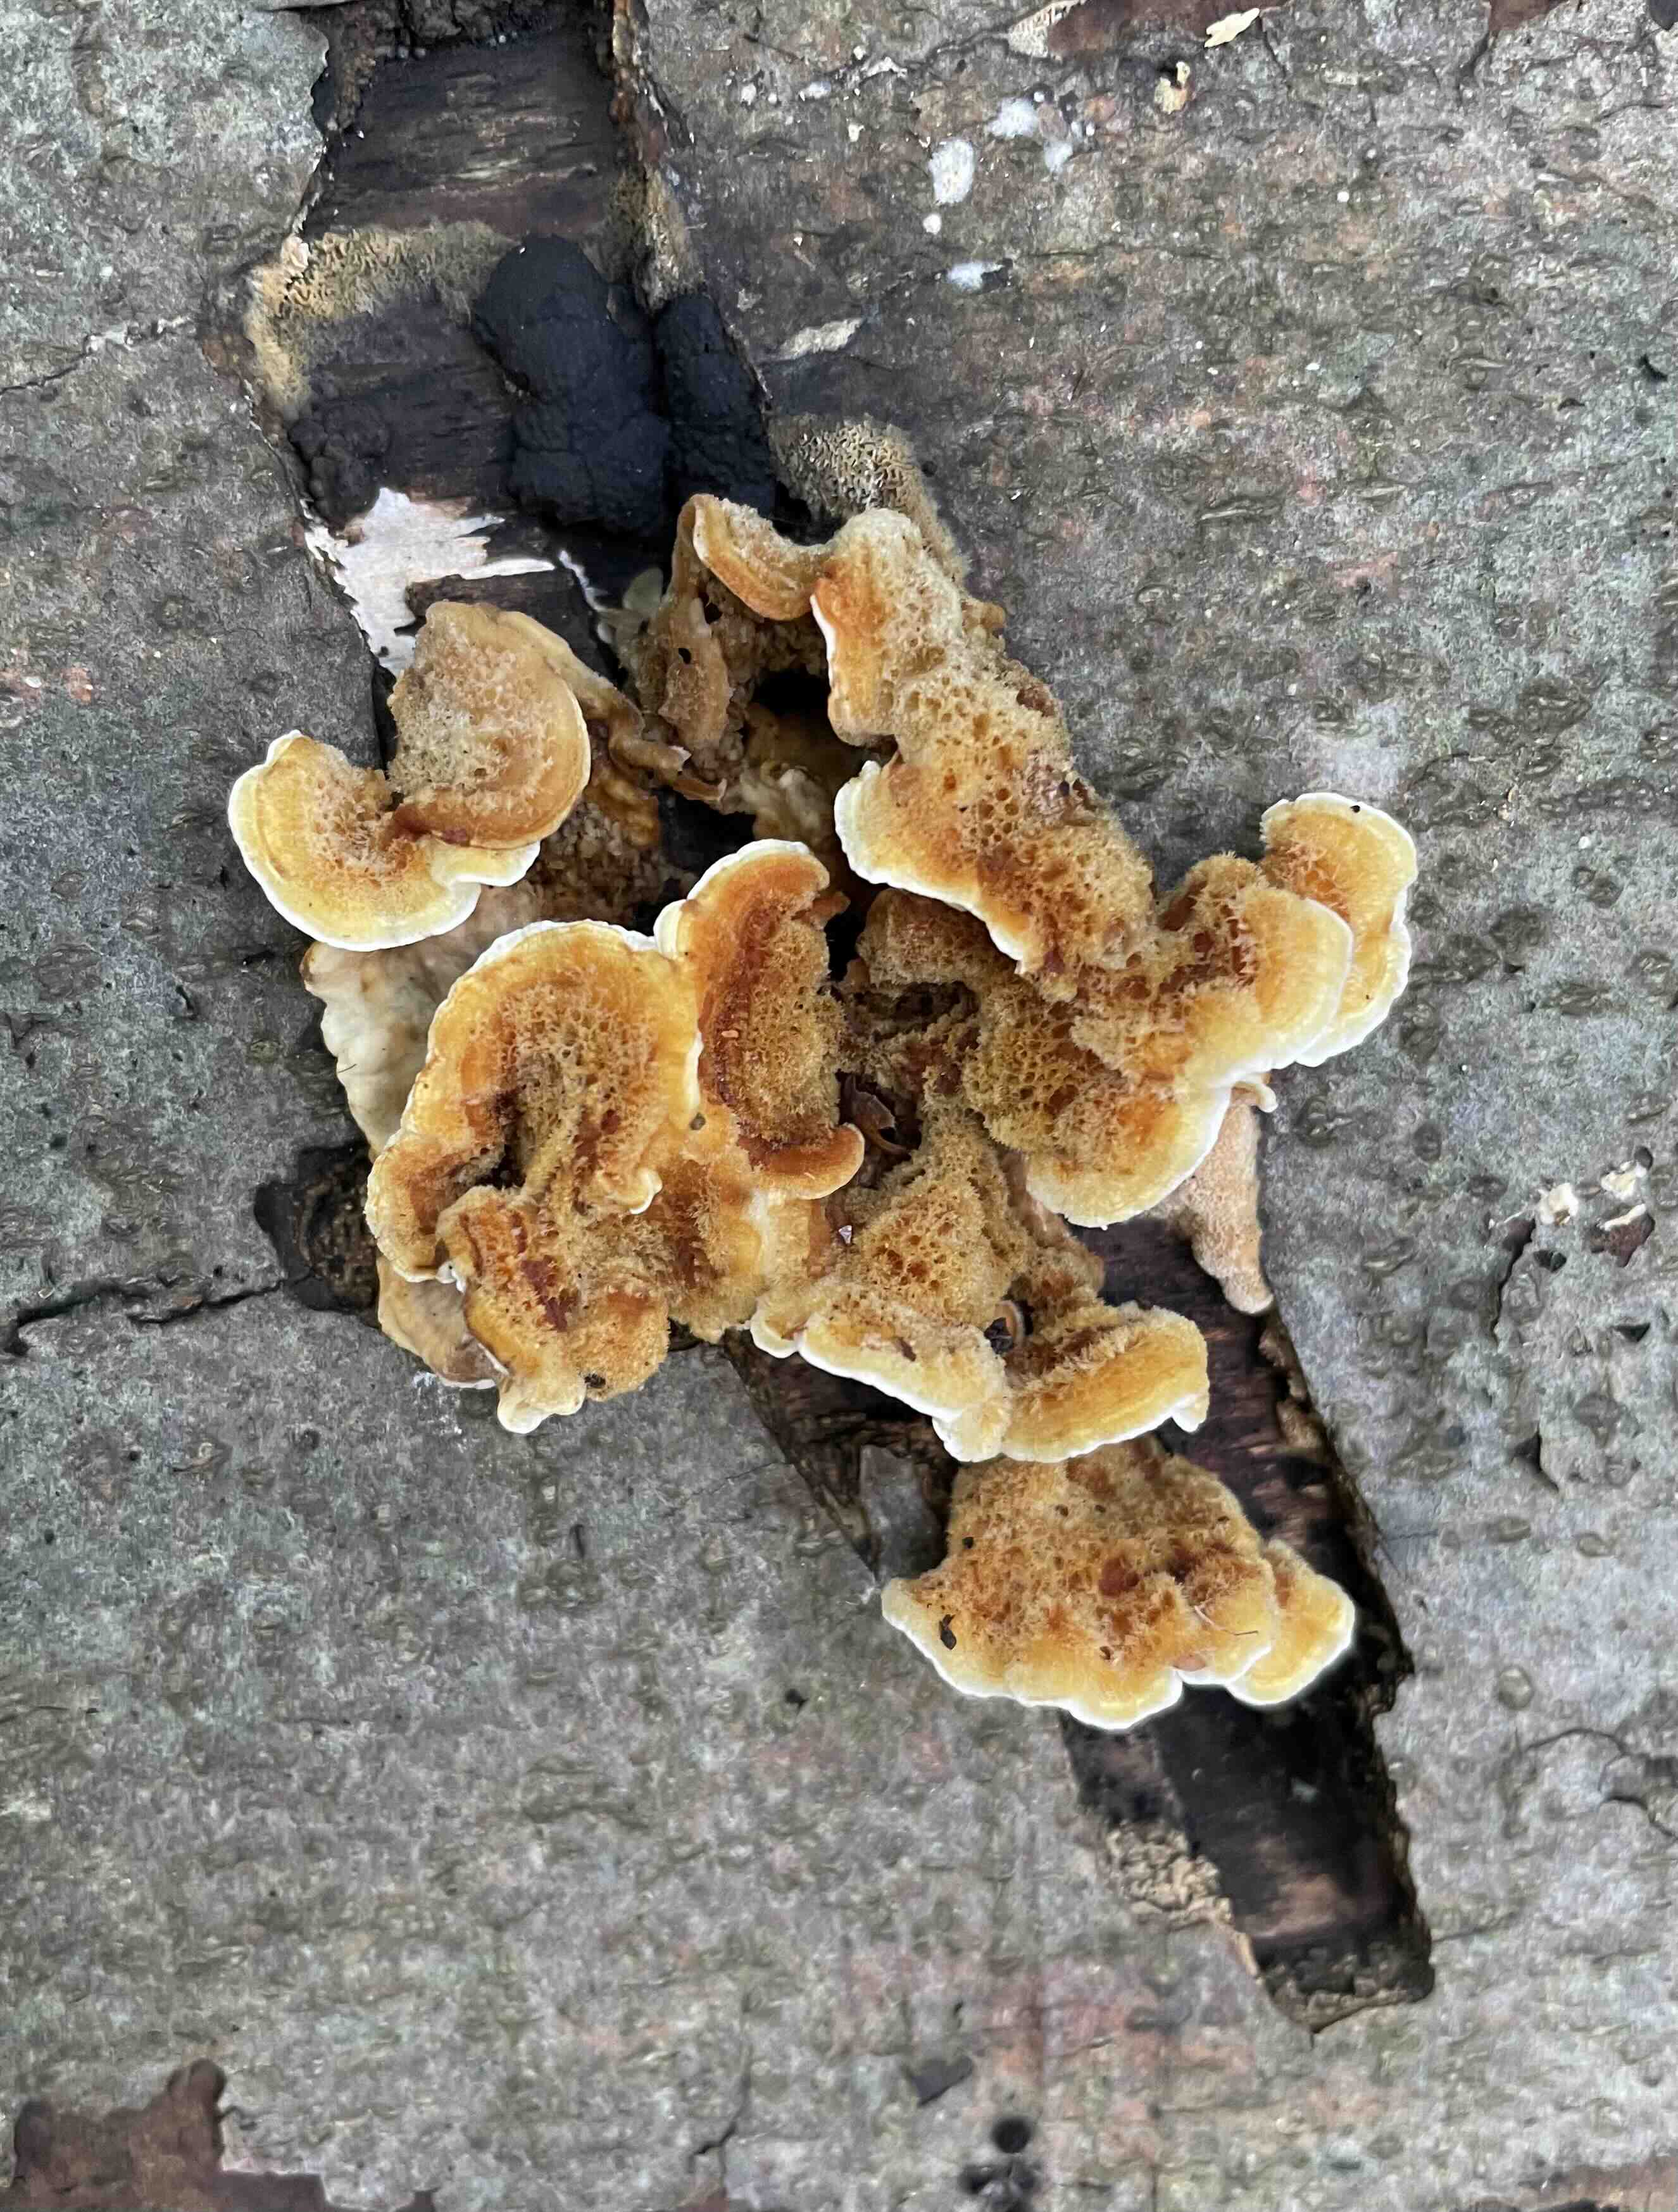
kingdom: Fungi
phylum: Basidiomycota
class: Agaricomycetes
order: Russulales
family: Stereaceae
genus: Stereum
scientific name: Stereum hirsutum
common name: håret lædersvamp
